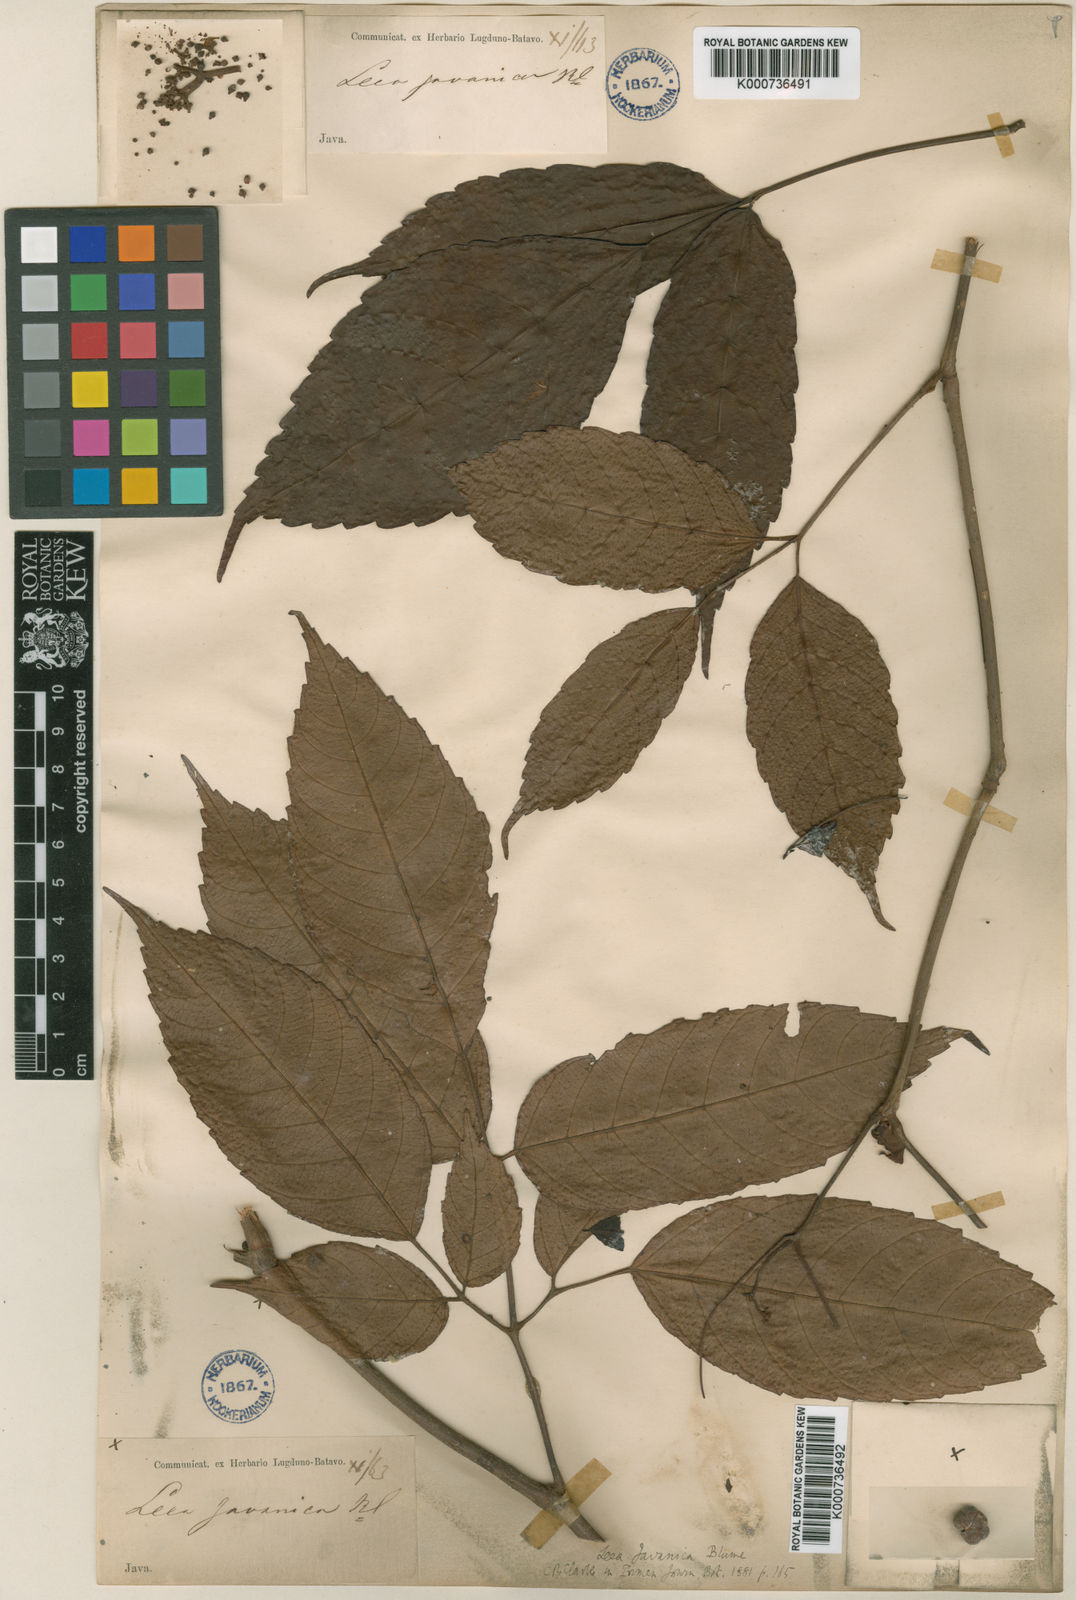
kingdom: Plantae
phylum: Tracheophyta
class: Magnoliopsida
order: Vitales
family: Vitaceae
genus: Leea
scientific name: Leea
